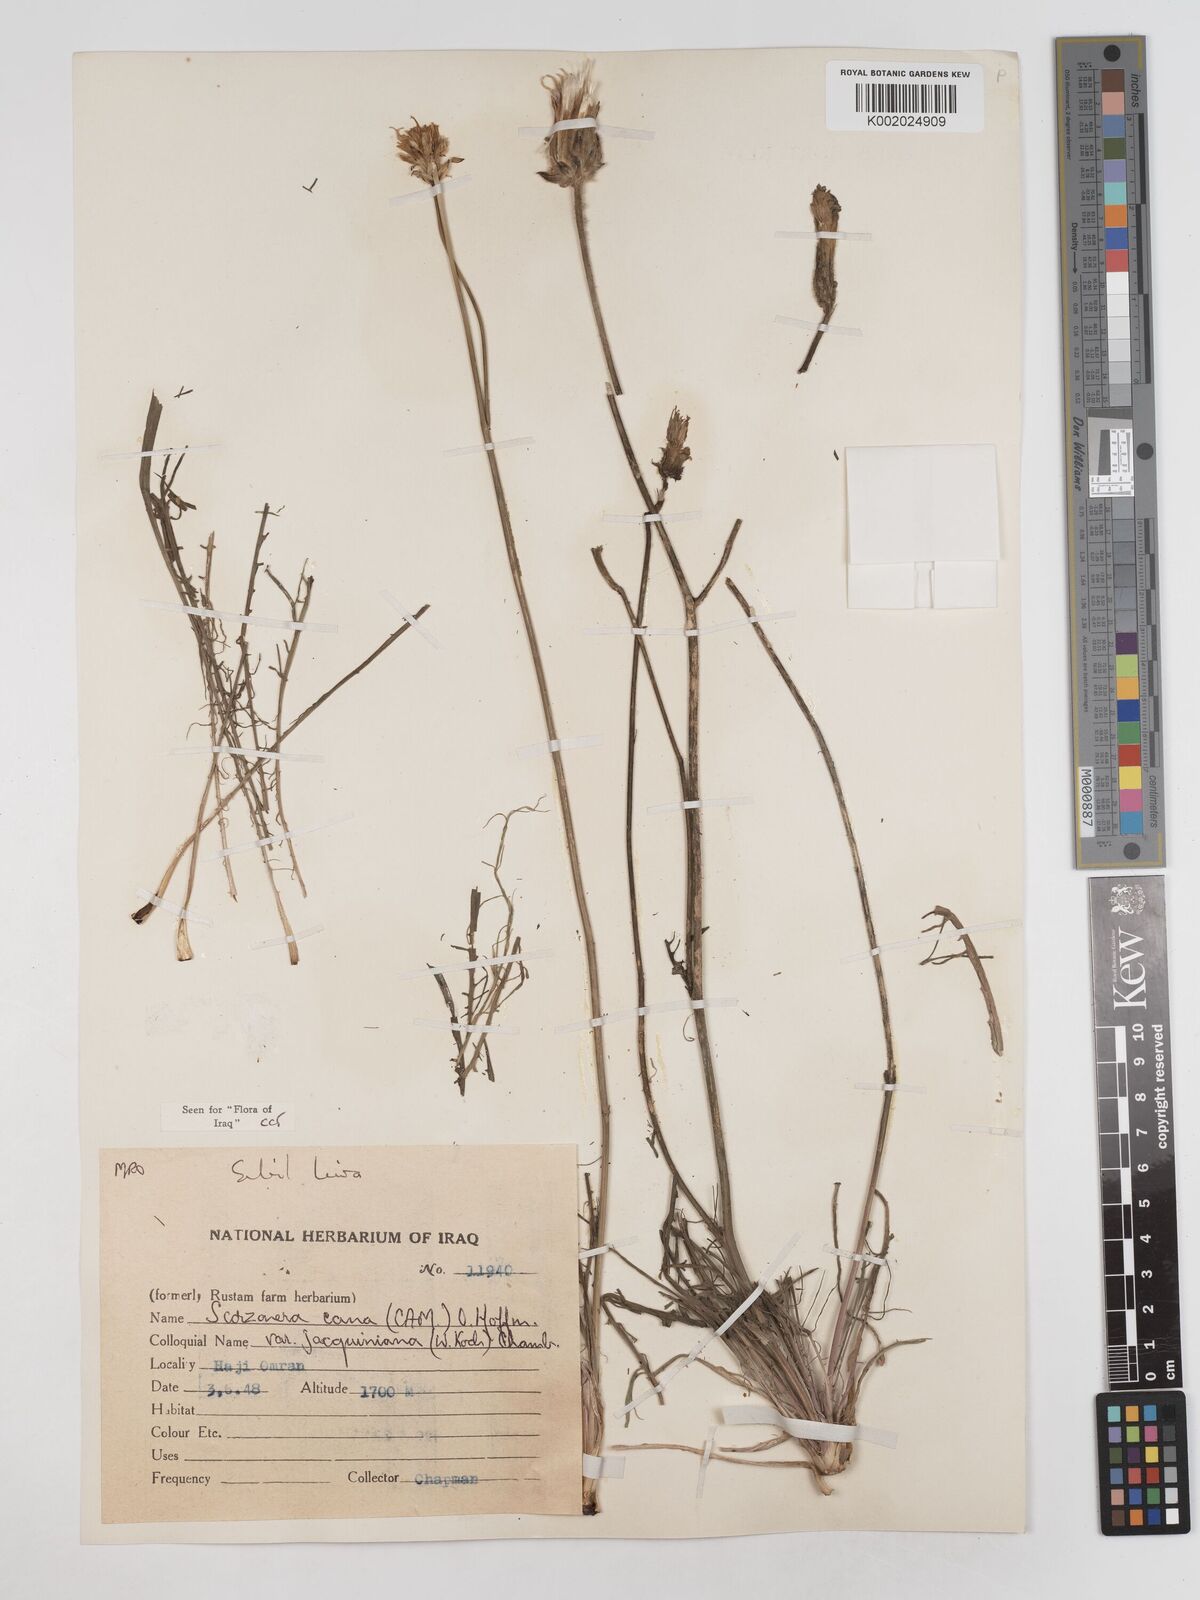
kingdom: Plantae
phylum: Tracheophyta
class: Magnoliopsida
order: Asterales
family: Asteraceae
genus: Scorzonera
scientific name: Scorzonera cana
